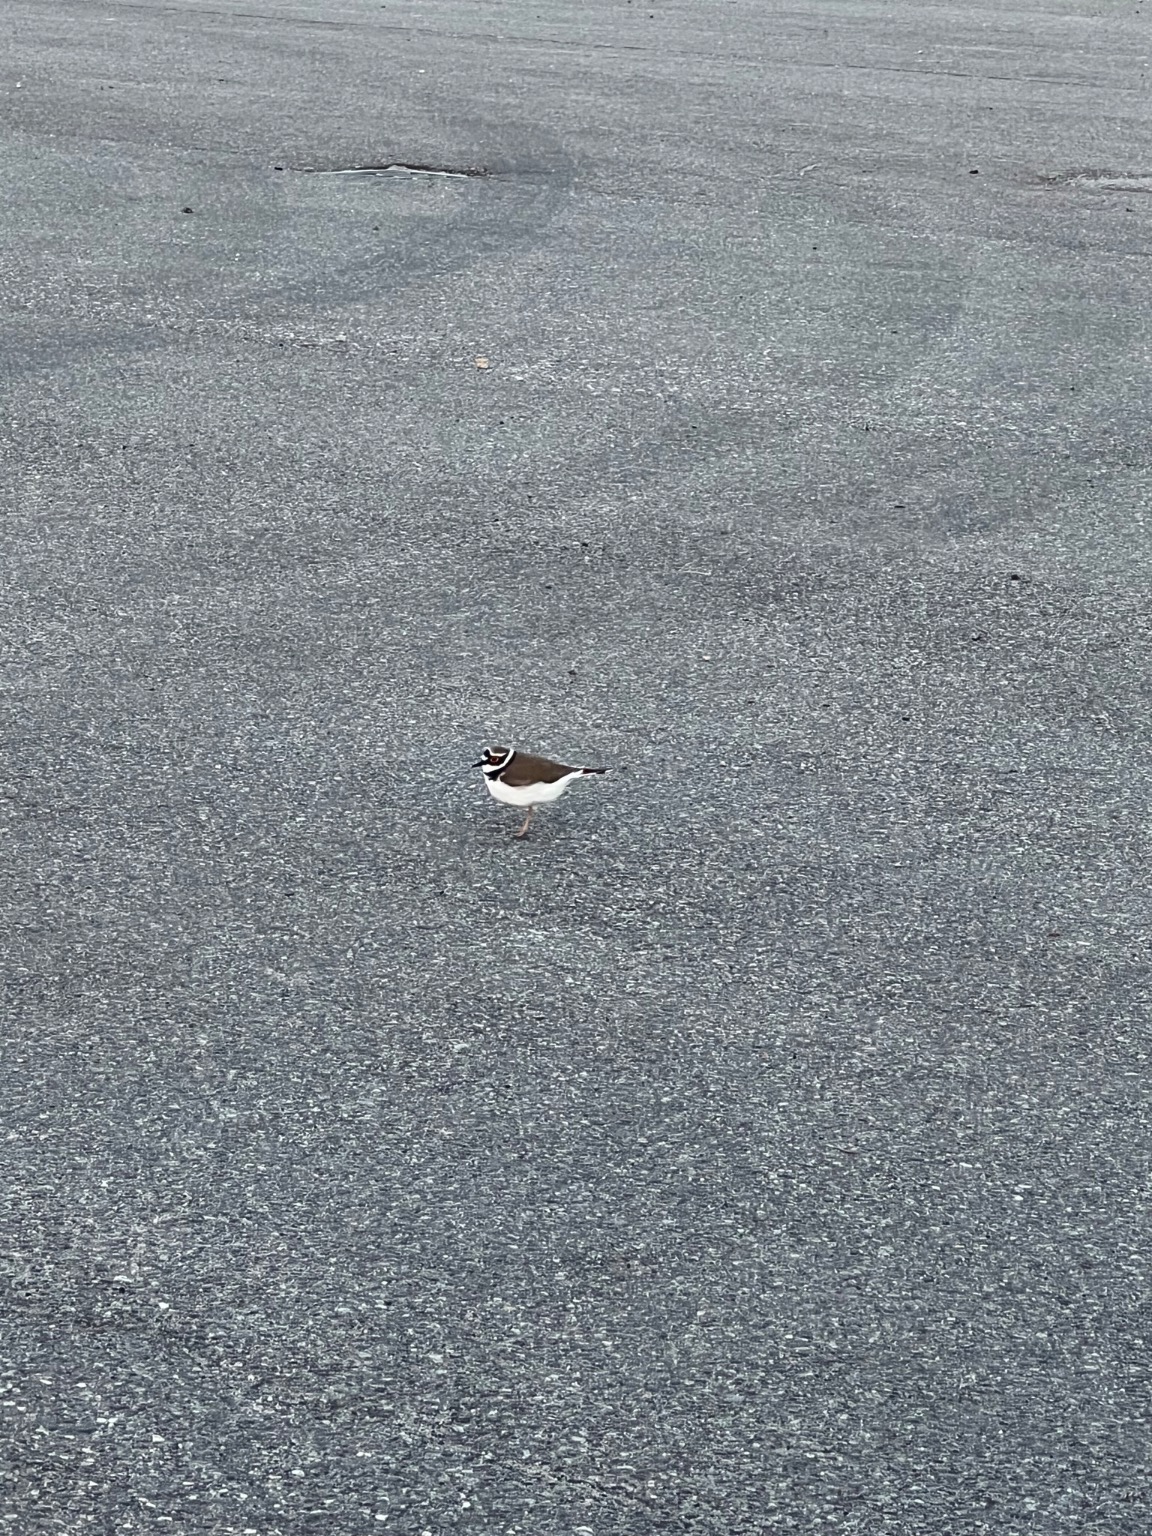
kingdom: Animalia
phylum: Chordata
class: Aves
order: Charadriiformes
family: Charadriidae
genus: Charadrius
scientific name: Charadrius dubius
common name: Lille præstekrave
